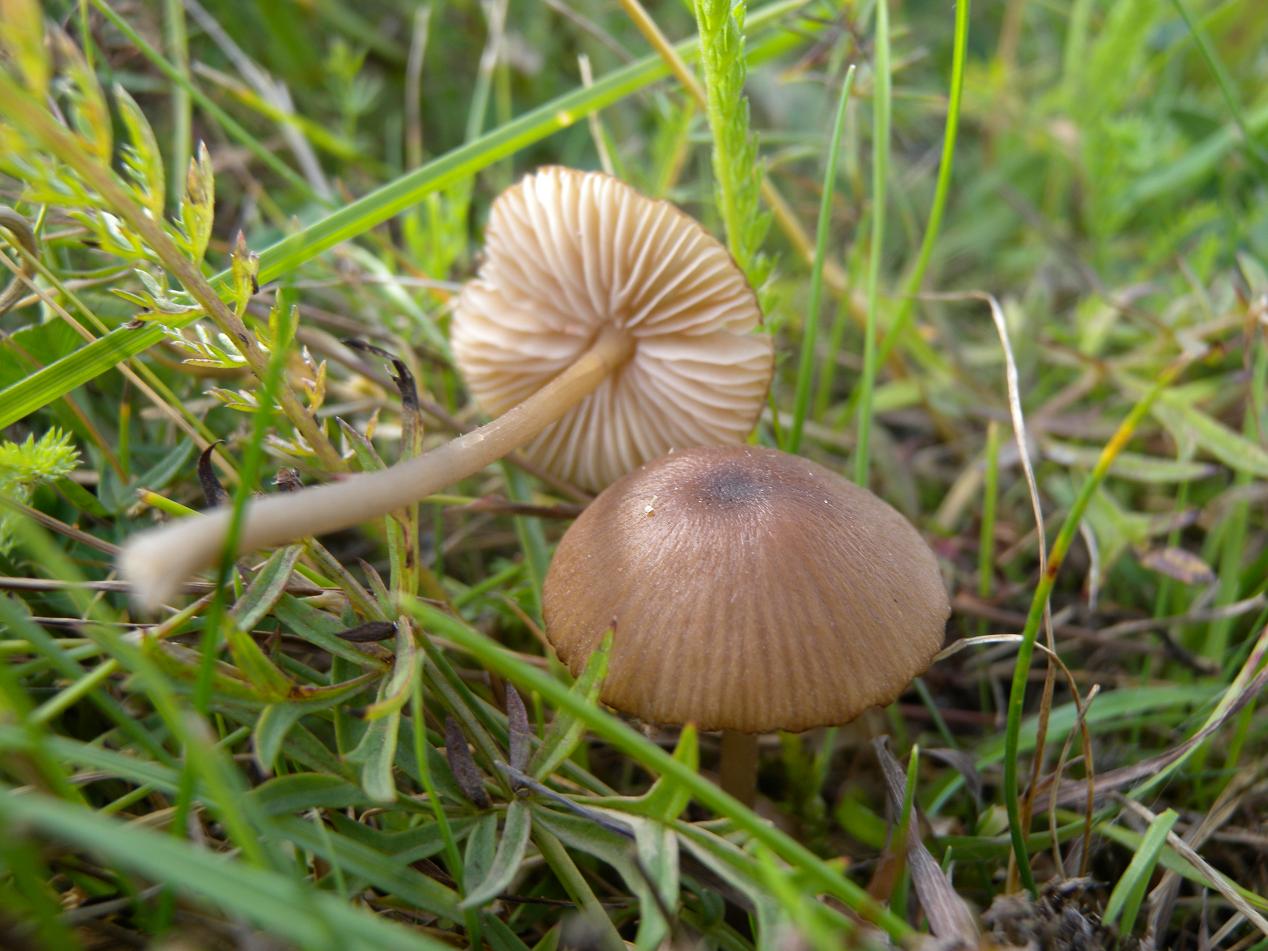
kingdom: Fungi
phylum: Basidiomycota
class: Agaricomycetes
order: Agaricales
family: Entolomataceae
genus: Entoloma
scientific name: Entoloma longistriatum
